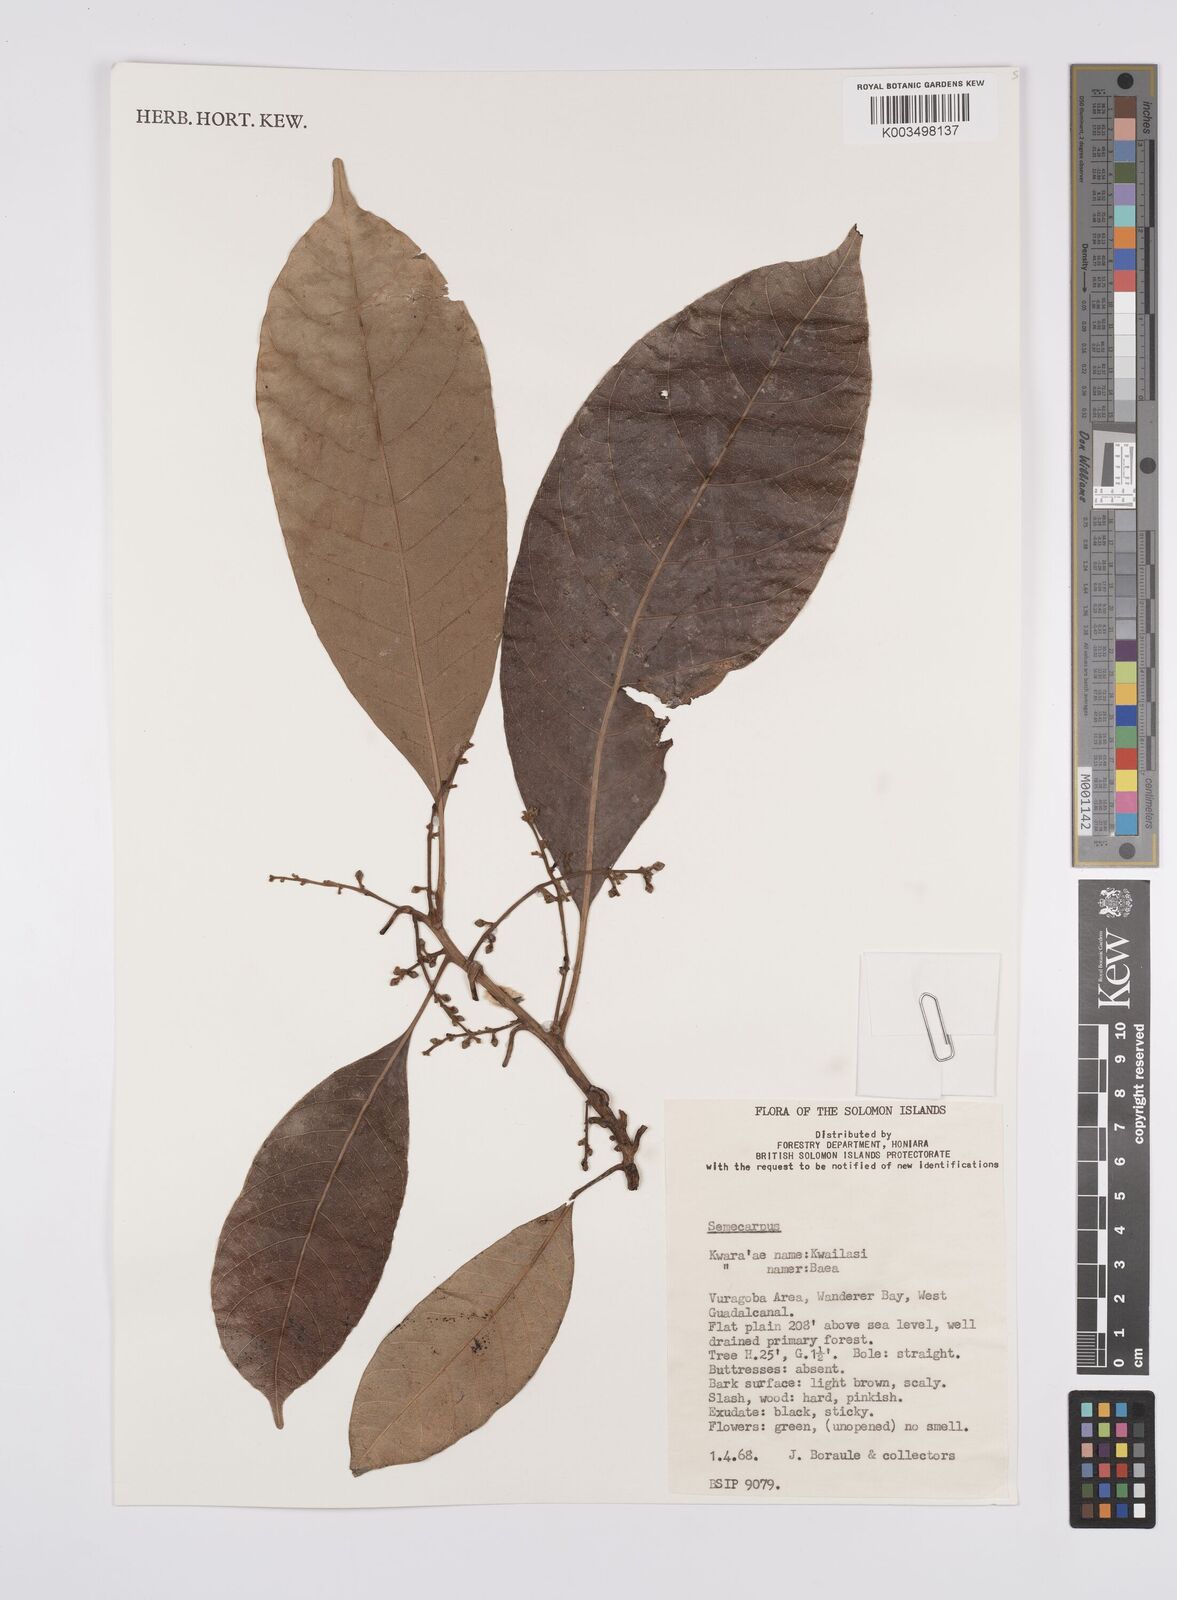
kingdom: Plantae
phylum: Tracheophyta
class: Magnoliopsida
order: Sapindales
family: Anacardiaceae
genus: Semecarpus
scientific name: Semecarpus
